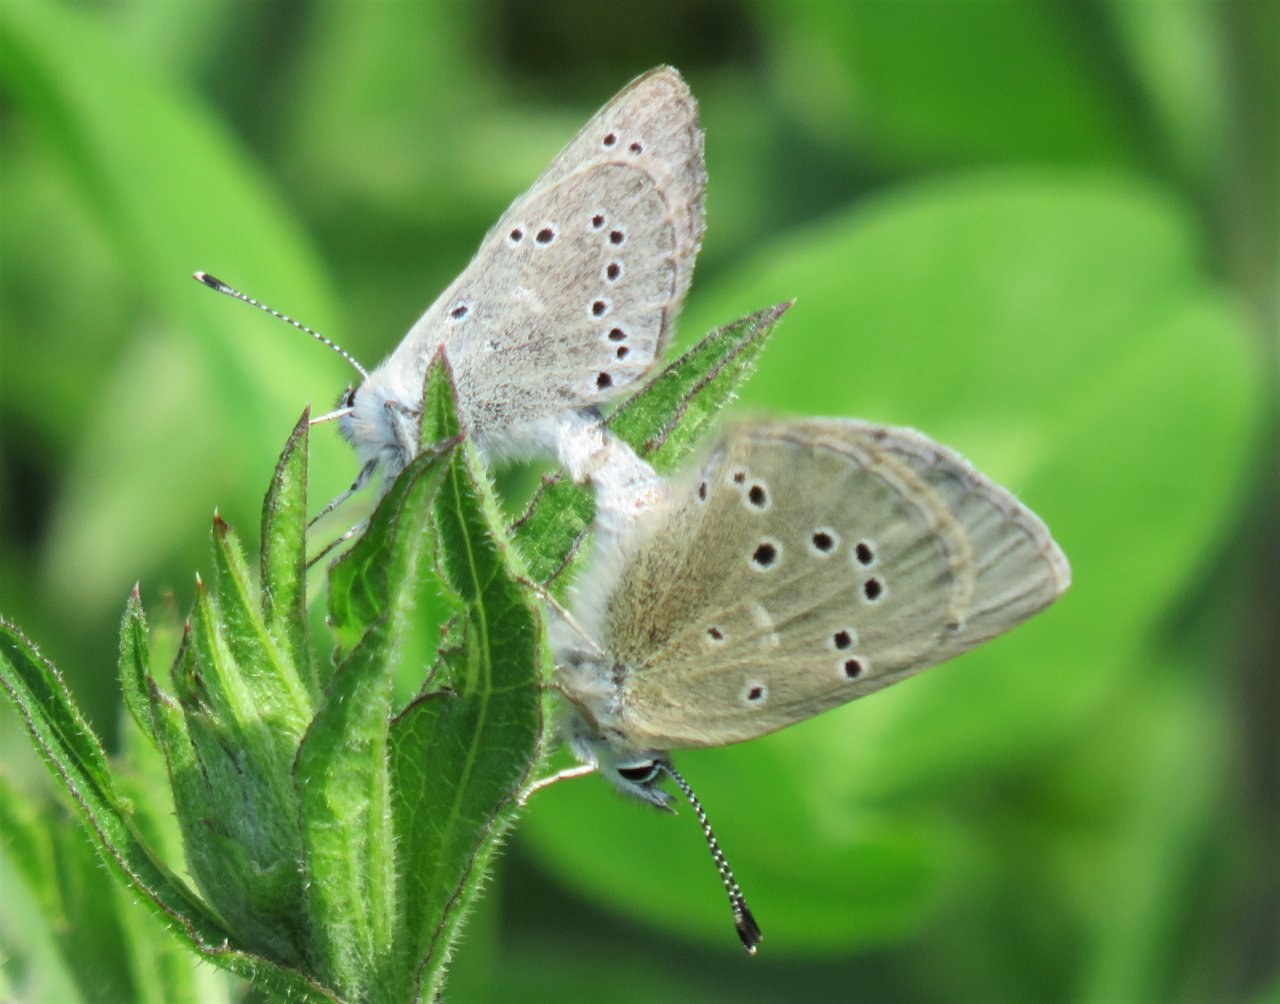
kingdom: Animalia
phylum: Arthropoda
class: Insecta
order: Lepidoptera
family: Lycaenidae
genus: Glaucopsyche
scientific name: Glaucopsyche lygdamus
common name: Silvery Blue
